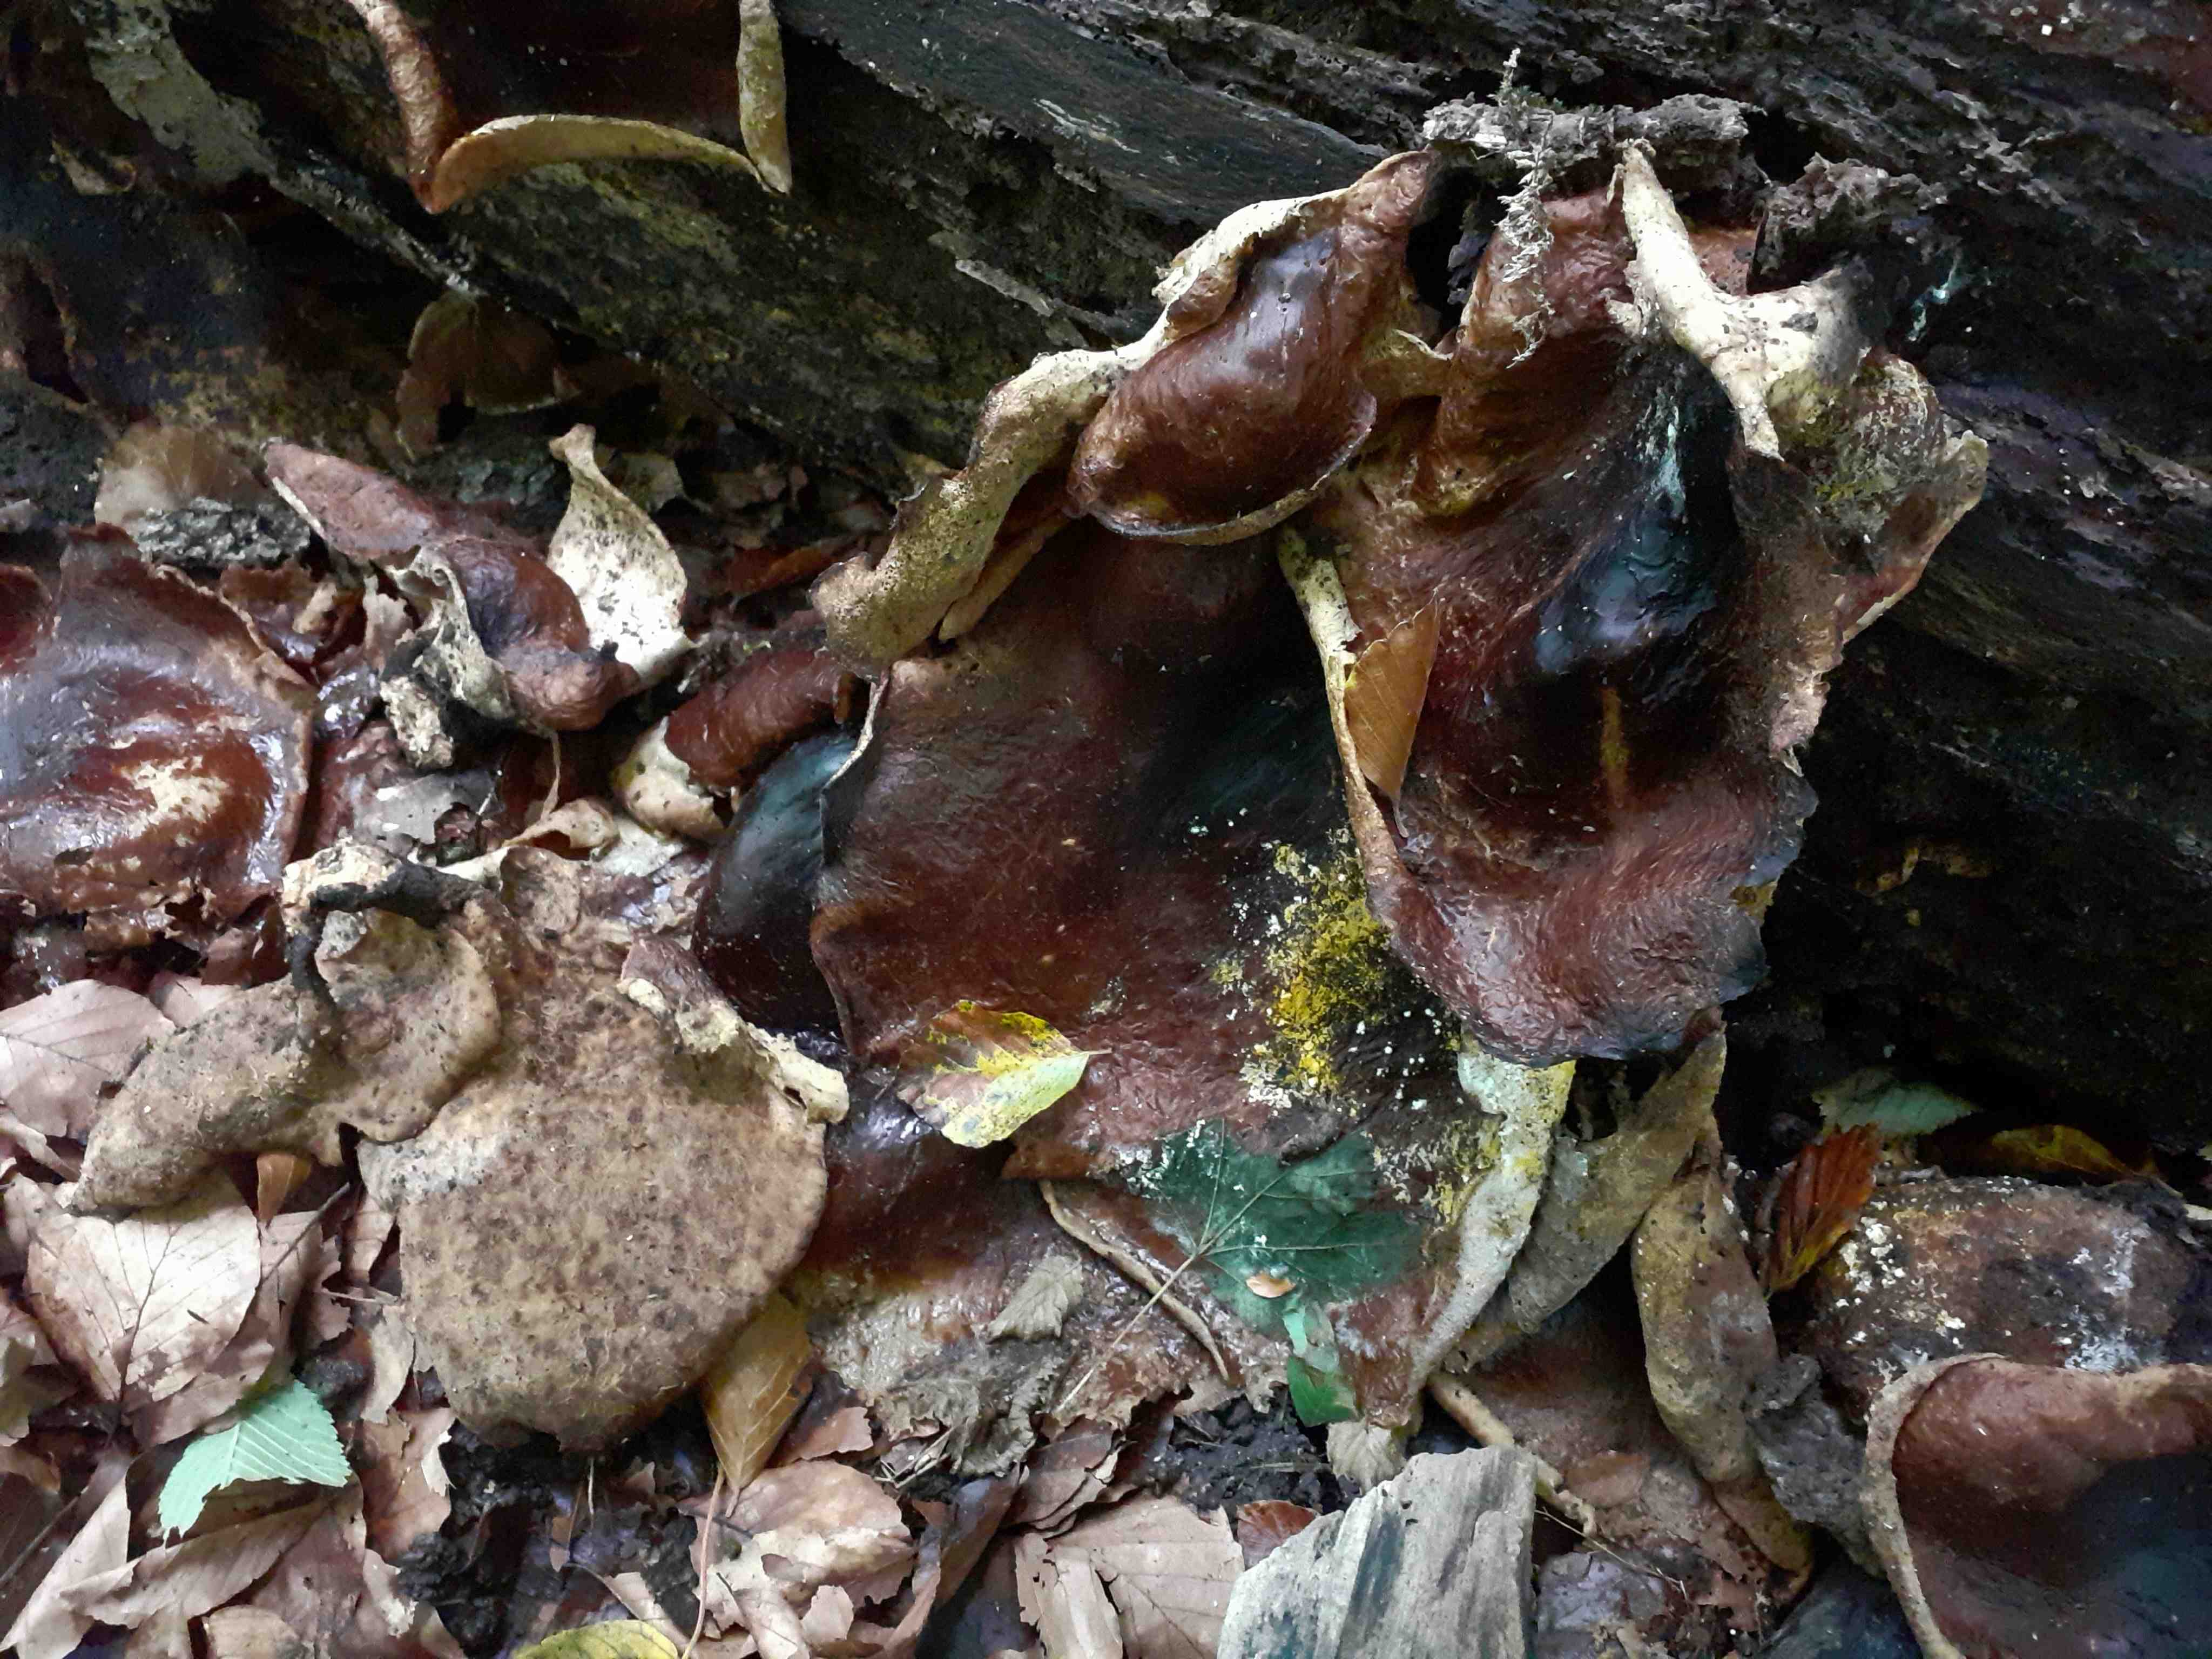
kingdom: Fungi
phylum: Basidiomycota
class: Agaricomycetes
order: Polyporales
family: Polyporaceae
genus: Picipes
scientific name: Picipes badius
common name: kastaniebrun stilkporesvamp
